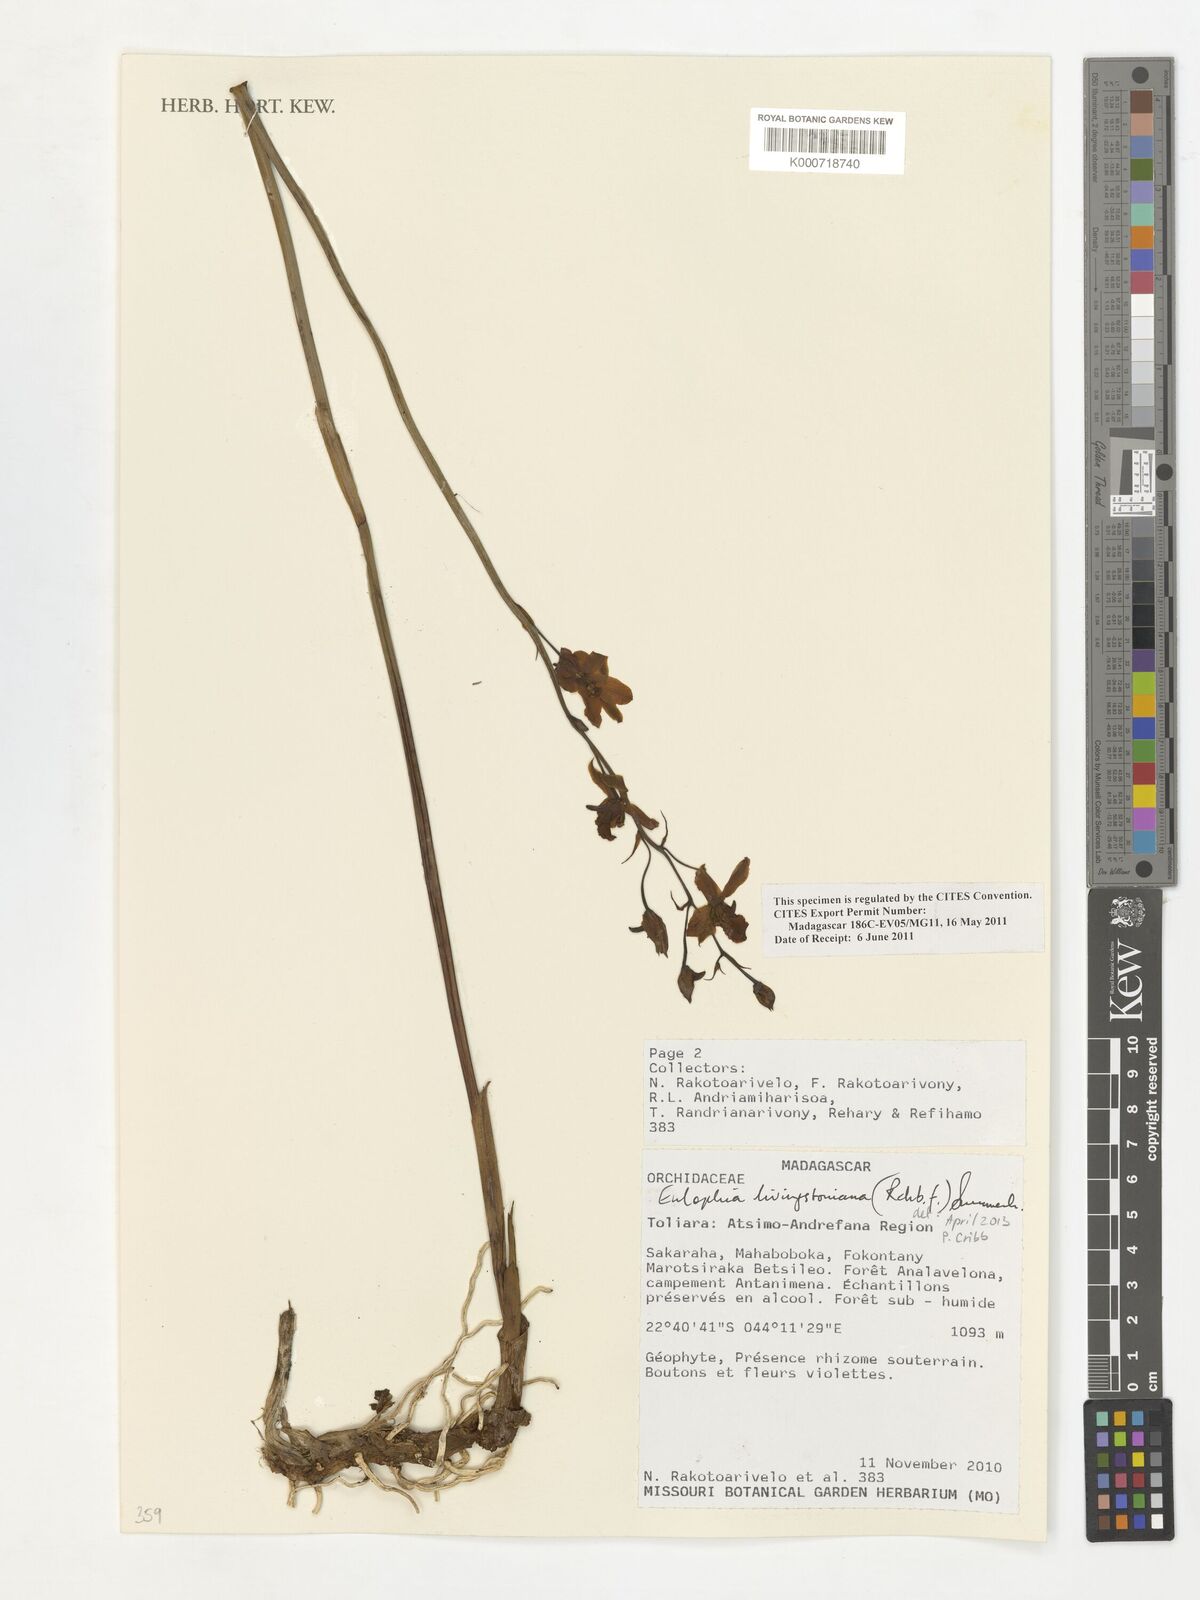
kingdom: Plantae
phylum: Tracheophyta
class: Liliopsida
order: Asparagales
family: Orchidaceae
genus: Eulophia
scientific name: Eulophia livingstoneana
